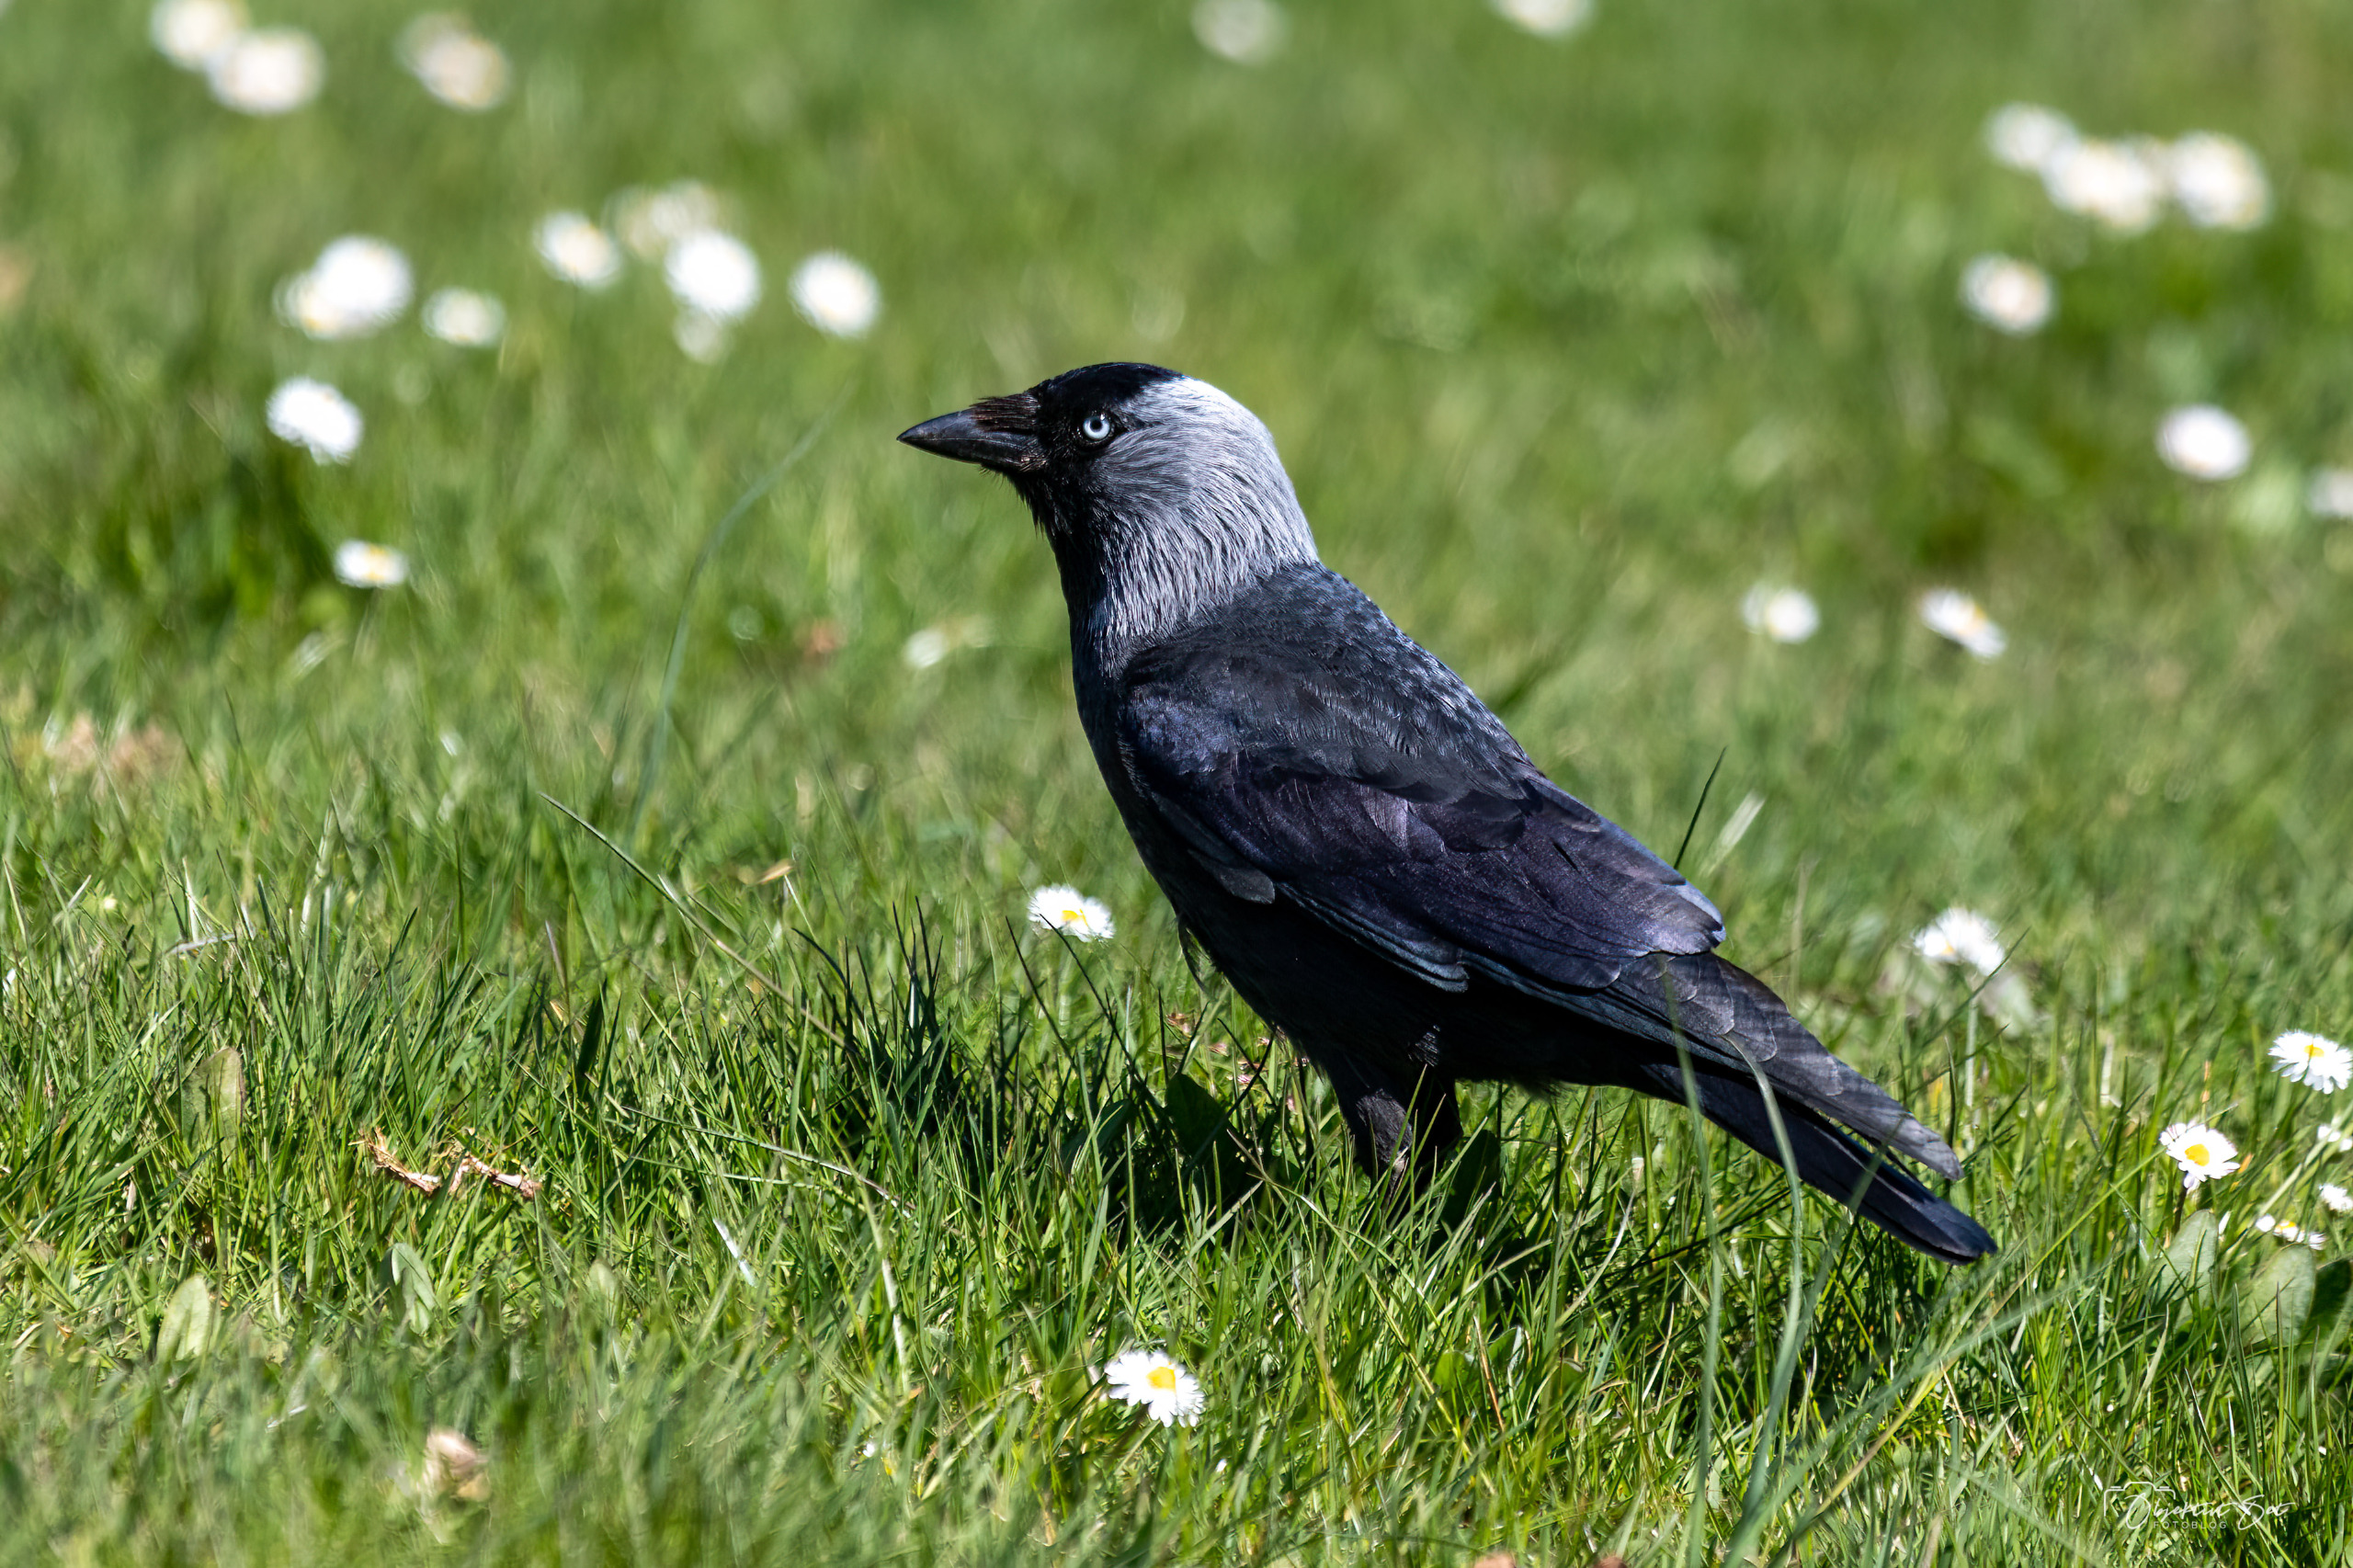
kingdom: Animalia
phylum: Chordata
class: Aves
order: Passeriformes
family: Corvidae
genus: Coloeus
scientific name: Coloeus monedula
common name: Allike
